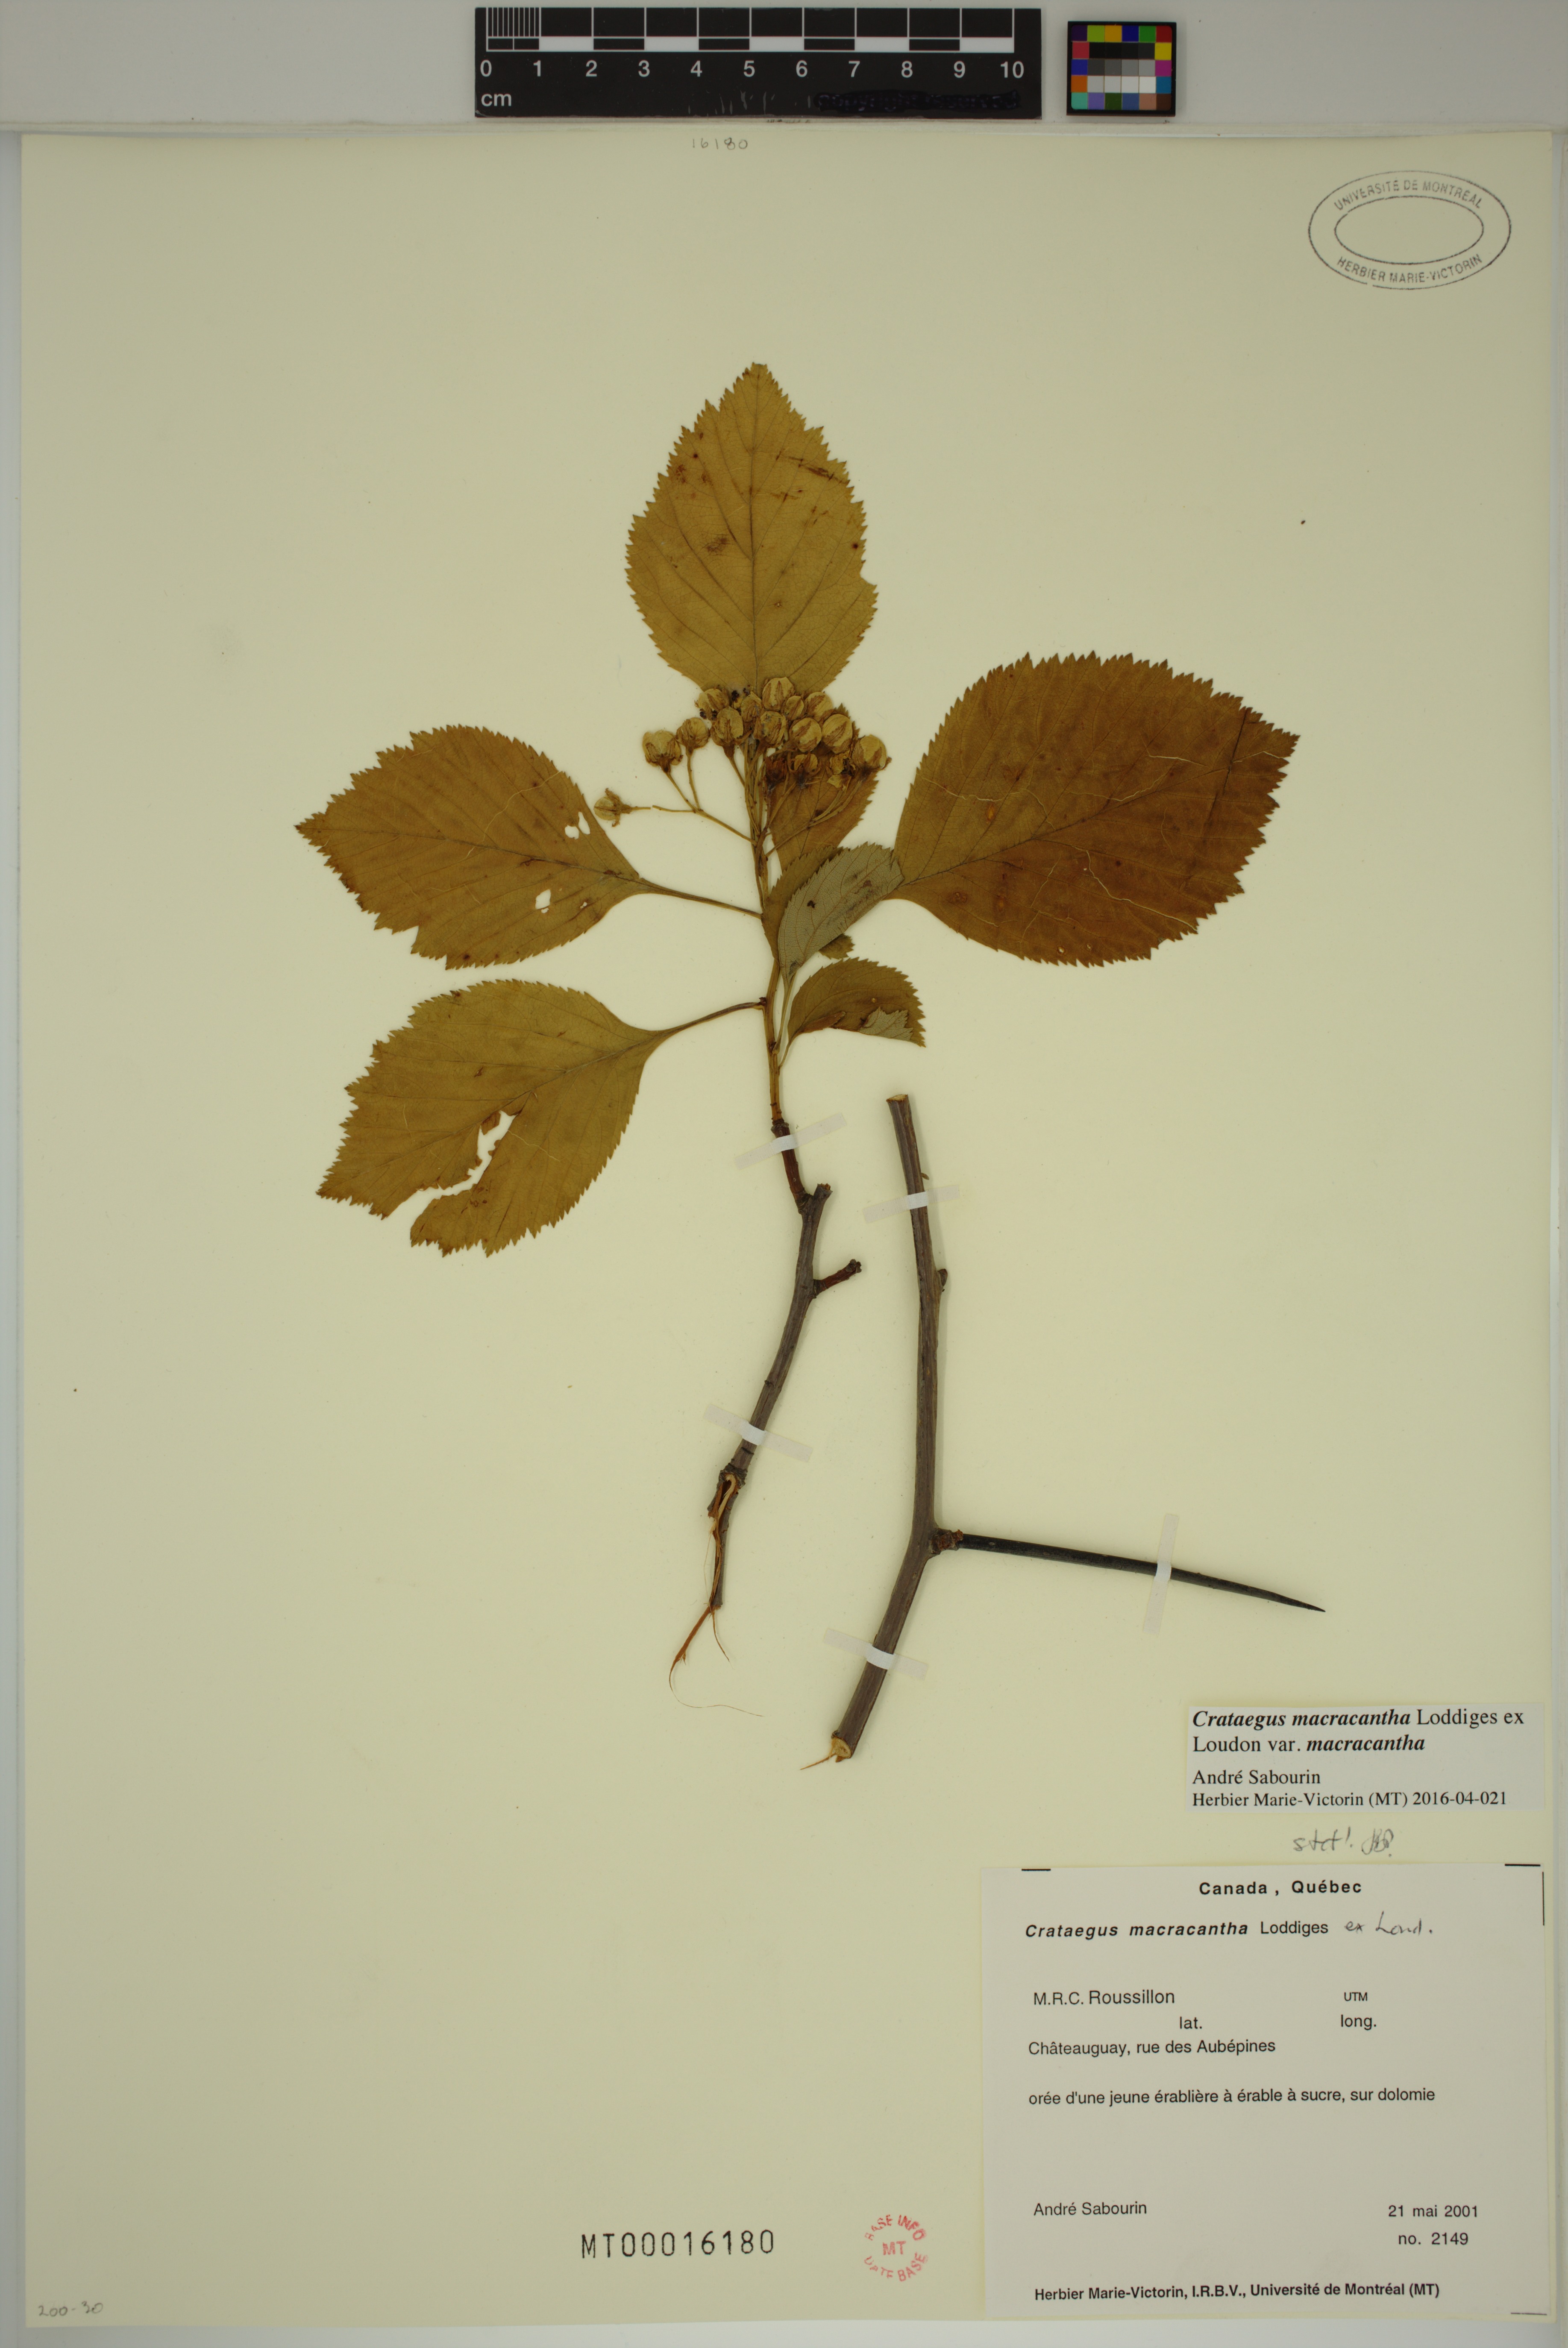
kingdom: Plantae
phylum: Tracheophyta
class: Magnoliopsida
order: Rosales
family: Rosaceae
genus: Crataegus
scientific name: Crataegus macracantha
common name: Large-thorn hawthorn
